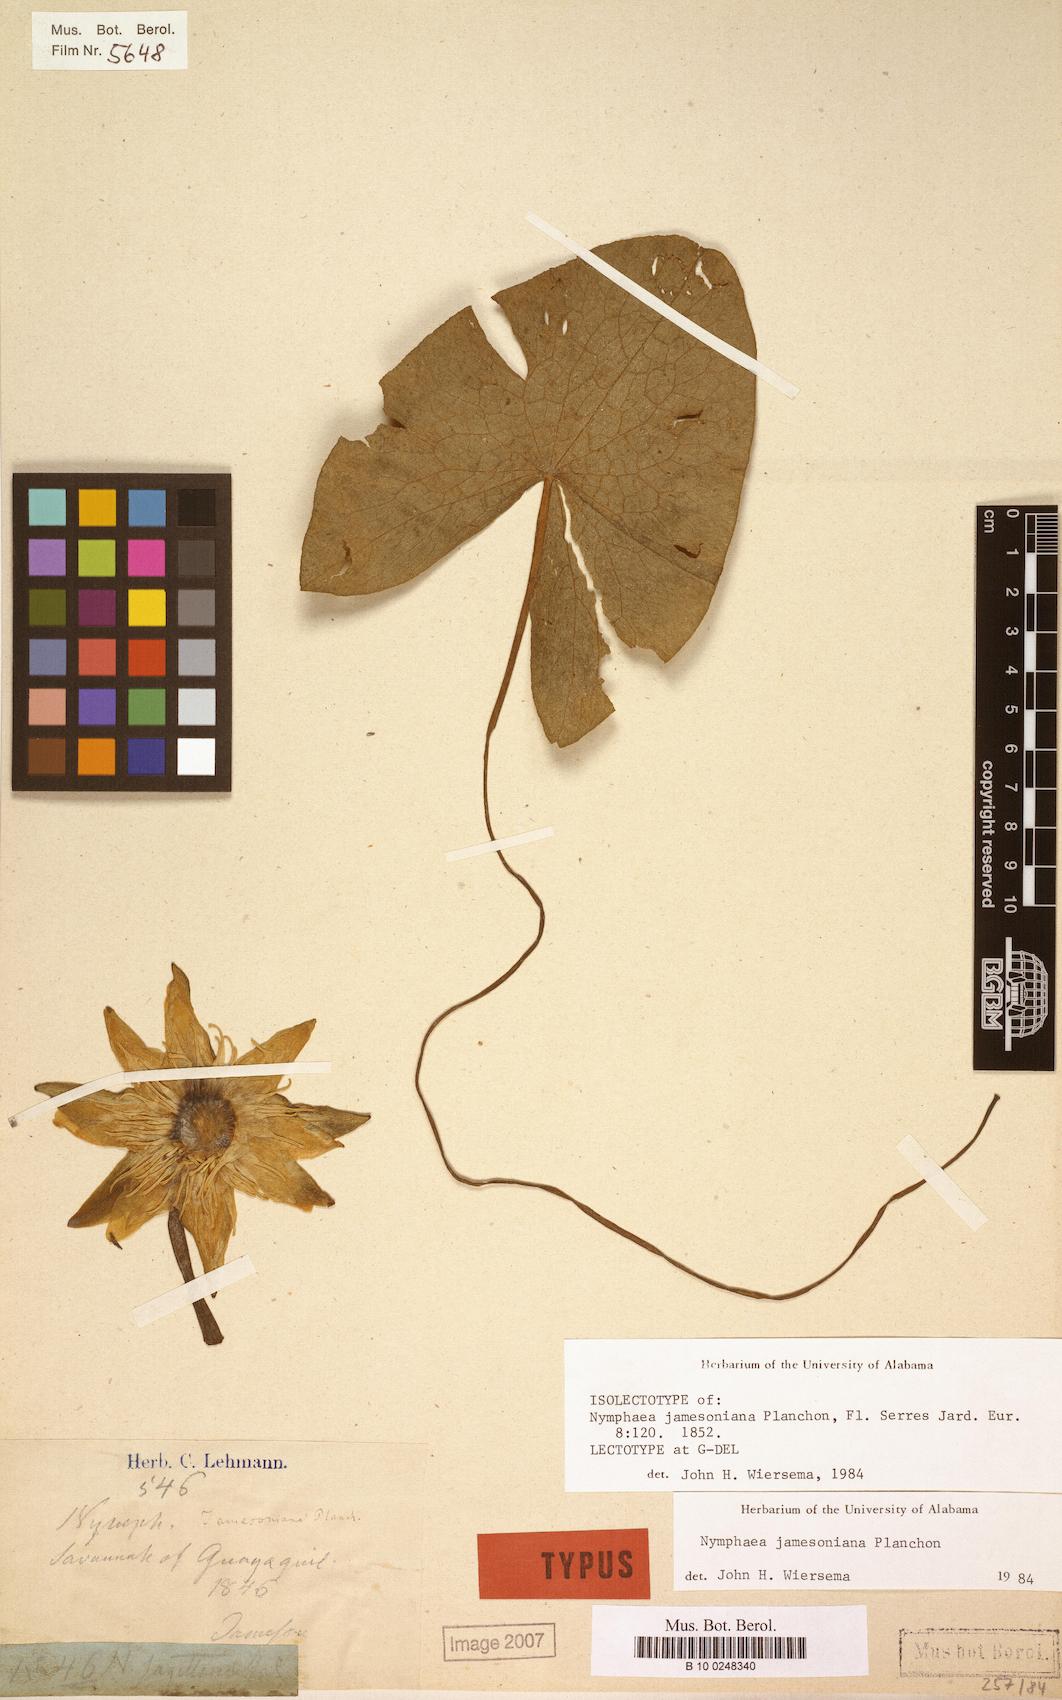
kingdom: Plantae
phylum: Tracheophyta
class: Magnoliopsida
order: Nymphaeales
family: Nymphaeaceae
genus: Nymphaea
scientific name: Nymphaea jamesoniana
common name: James' waterlily
